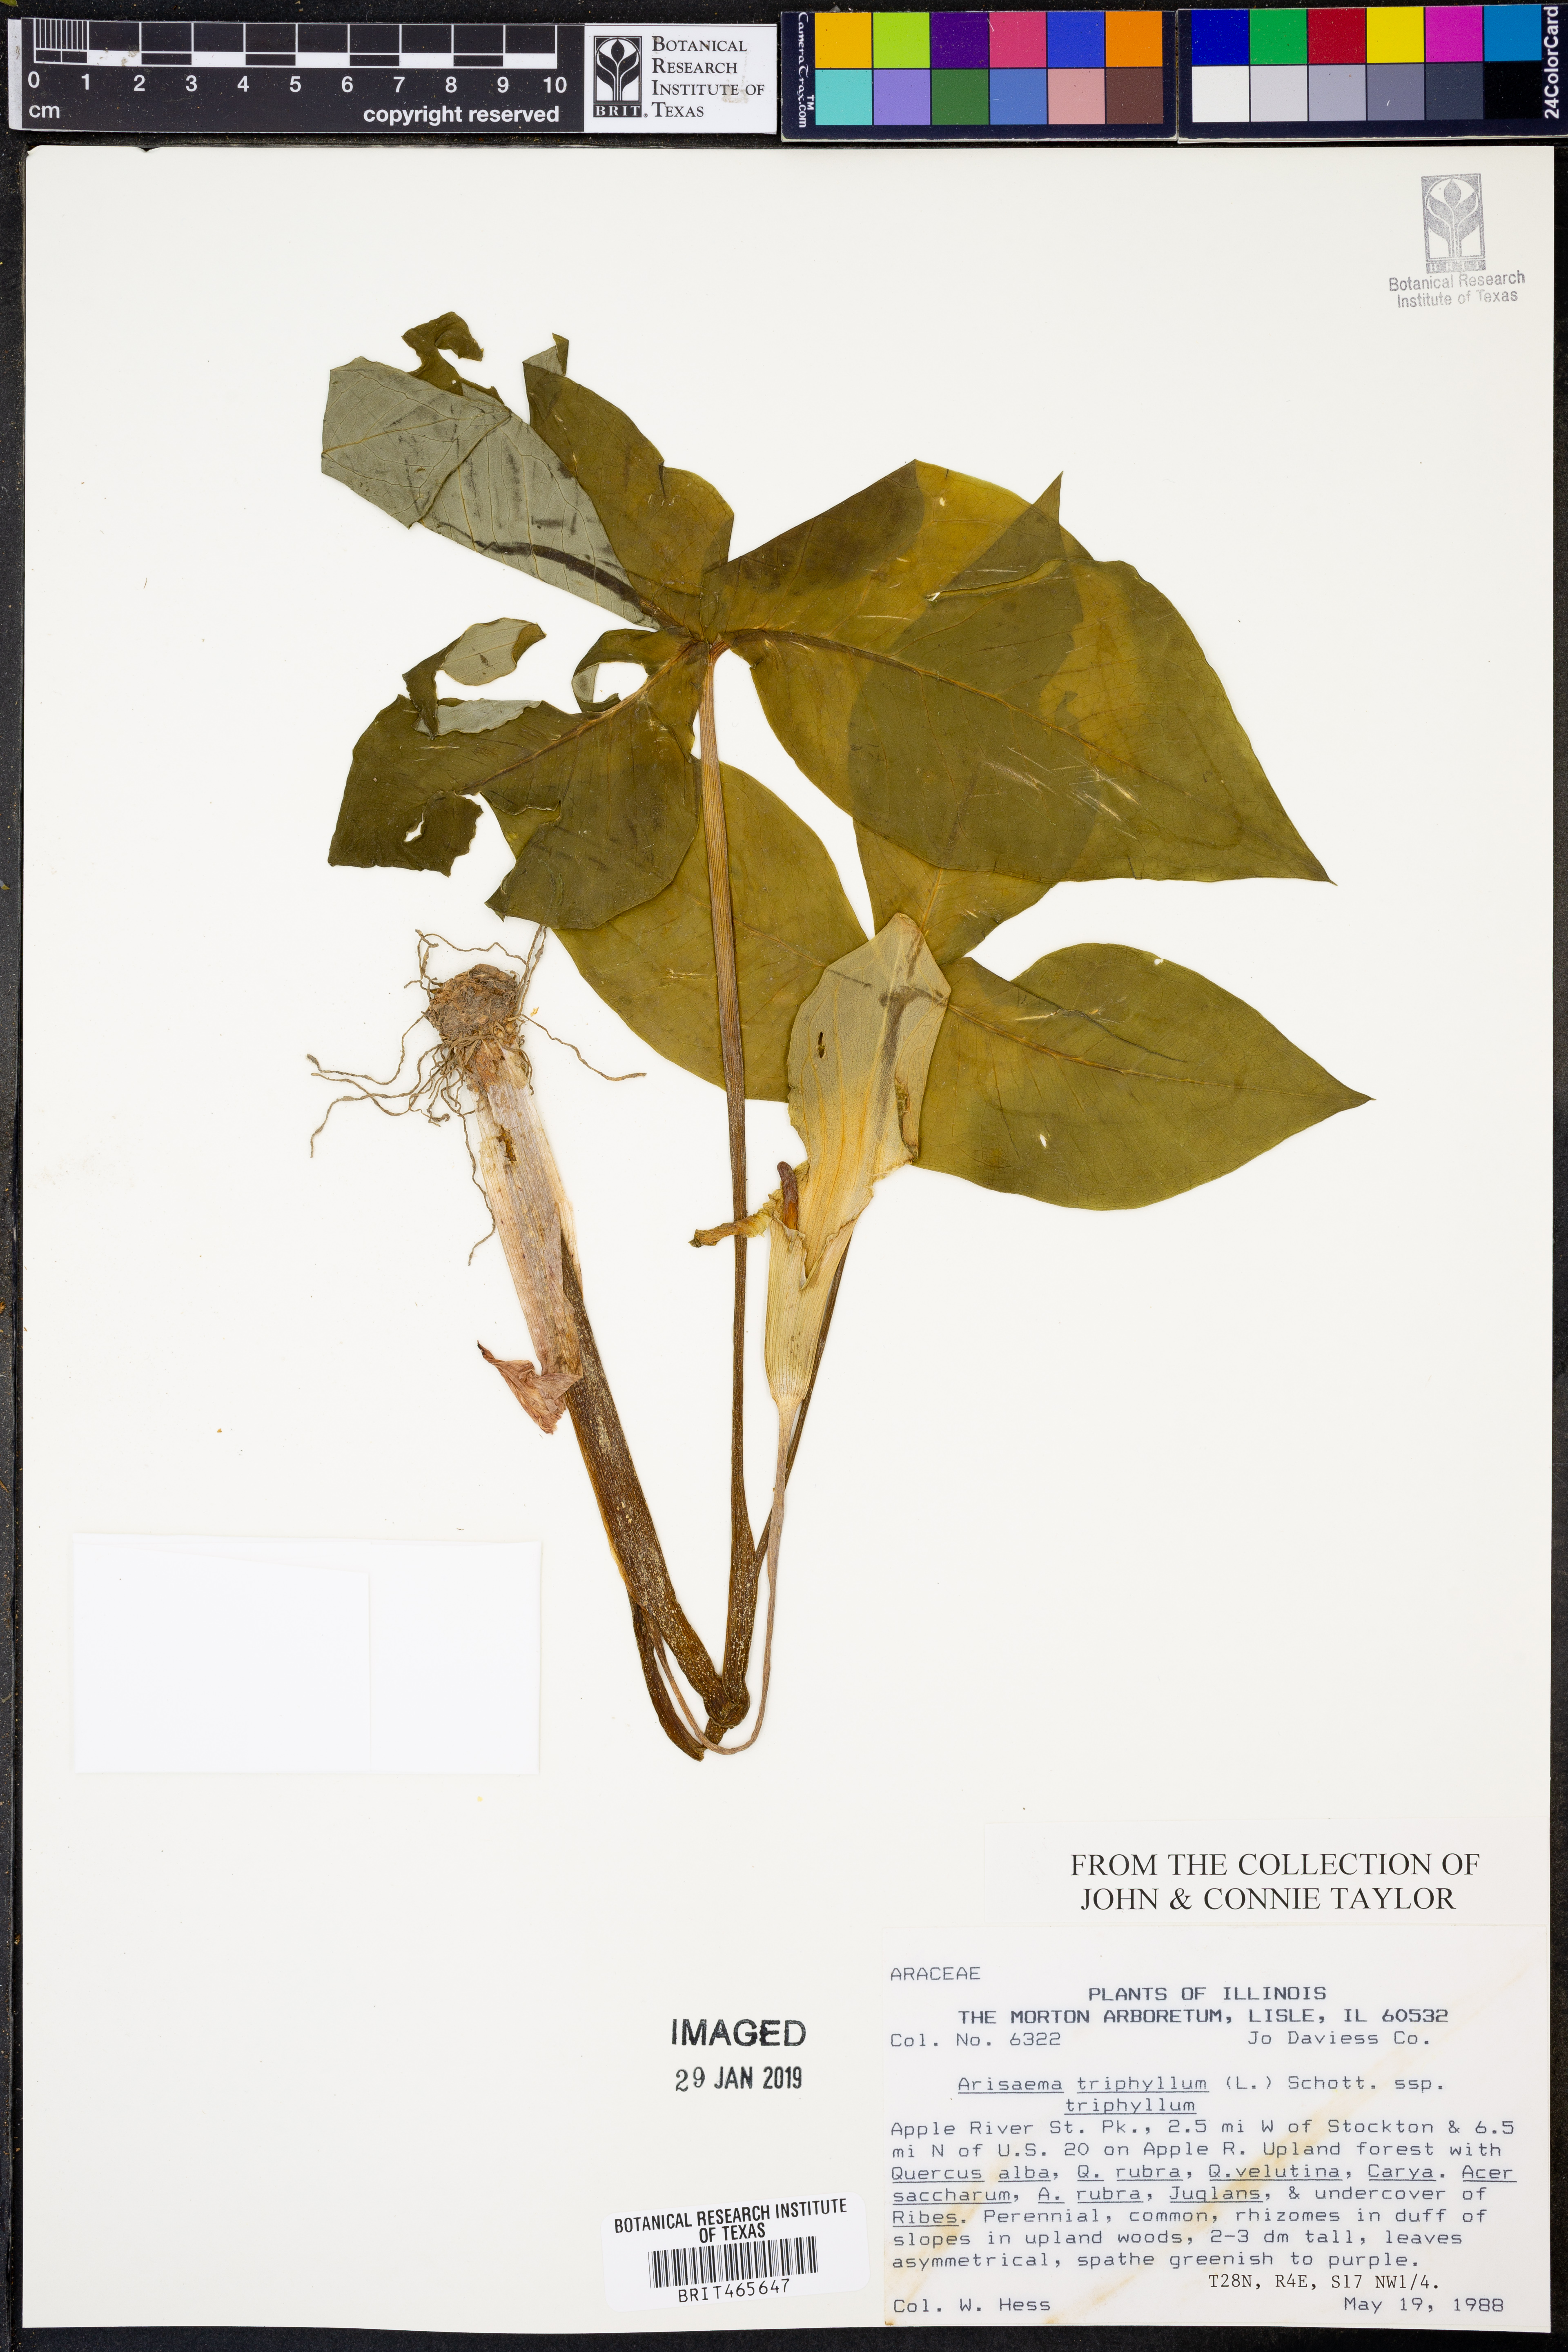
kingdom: Plantae
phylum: Tracheophyta
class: Liliopsida
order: Alismatales
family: Araceae
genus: Arisaema
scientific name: Arisaema triphyllum
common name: Jack-in-the-pulpit
